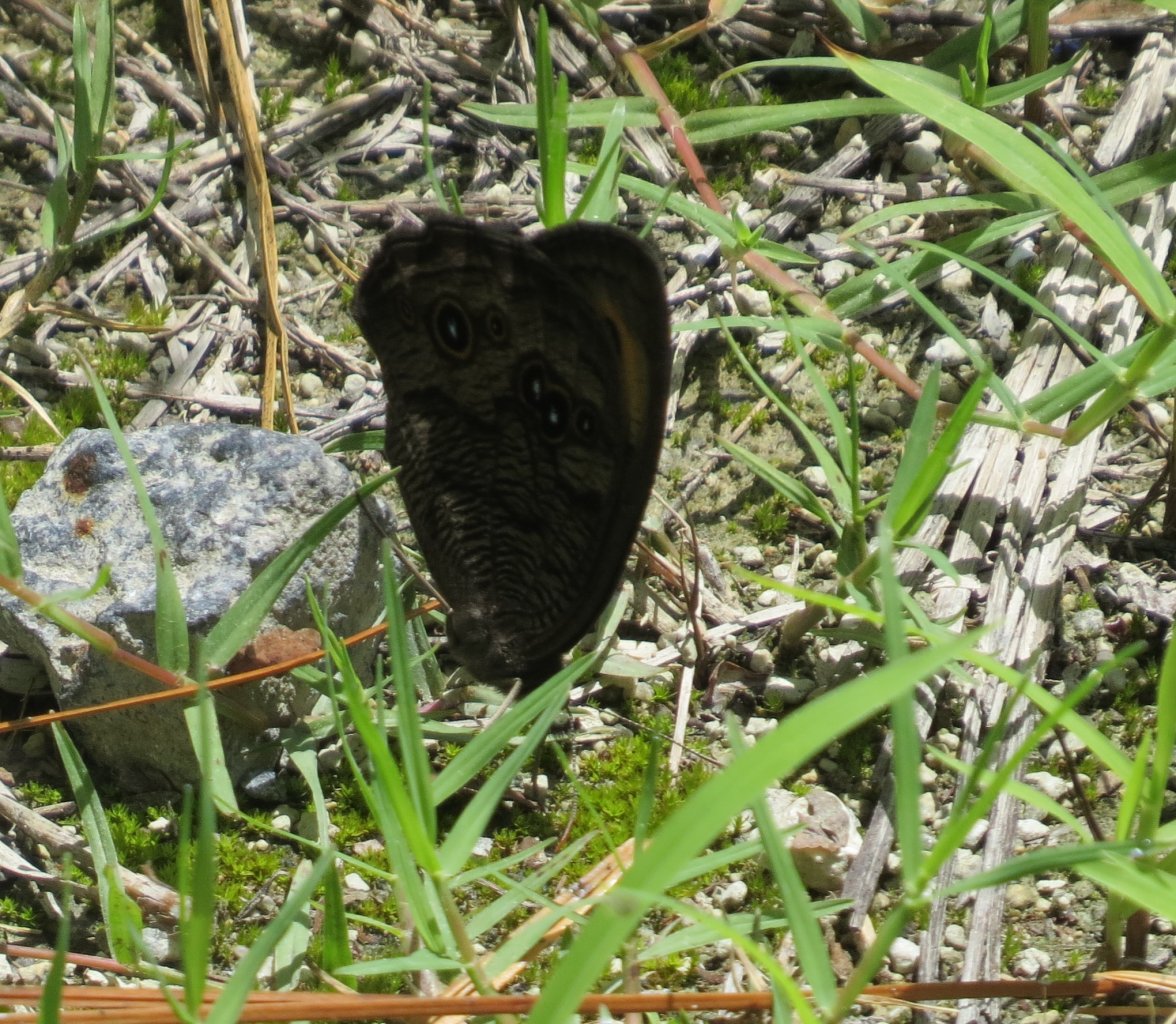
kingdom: Animalia
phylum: Arthropoda
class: Insecta
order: Lepidoptera
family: Nymphalidae
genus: Cercyonis
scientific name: Cercyonis pegala
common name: Common Wood-Nymph
